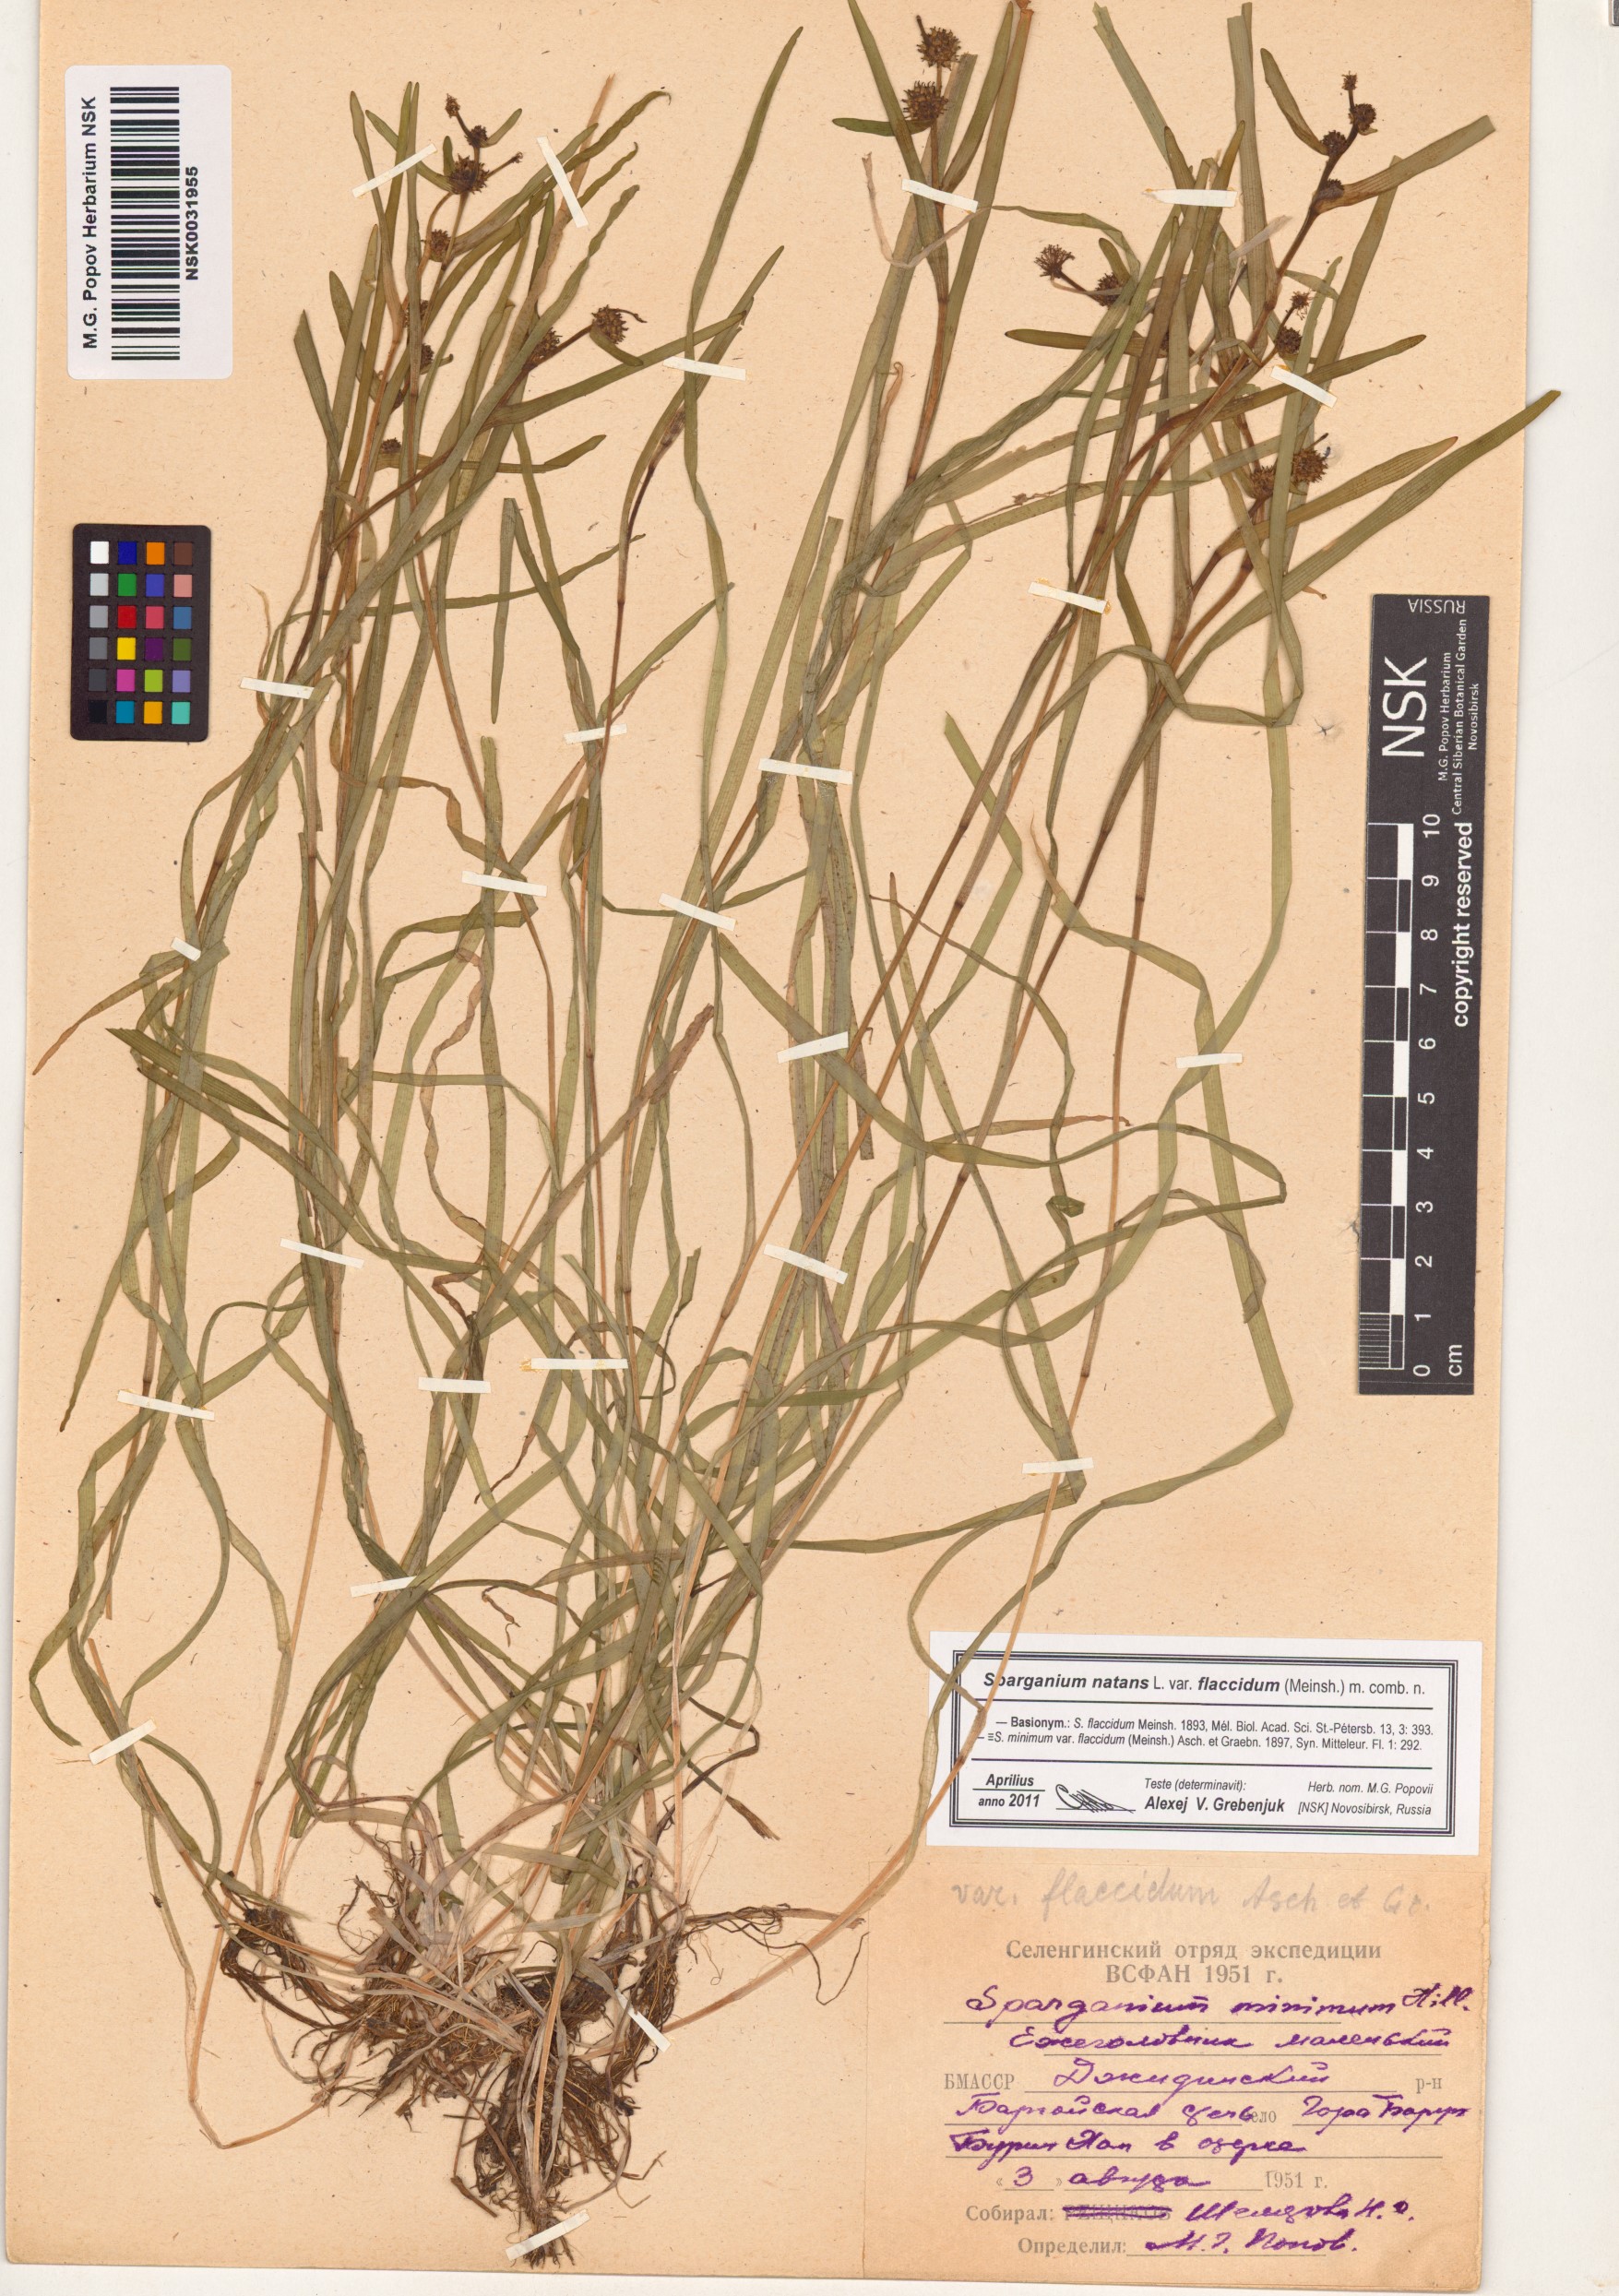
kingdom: Plantae
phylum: Tracheophyta
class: Liliopsida
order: Poales
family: Typhaceae
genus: Sparganium
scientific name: Sparganium natans
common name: Least bur-reed
